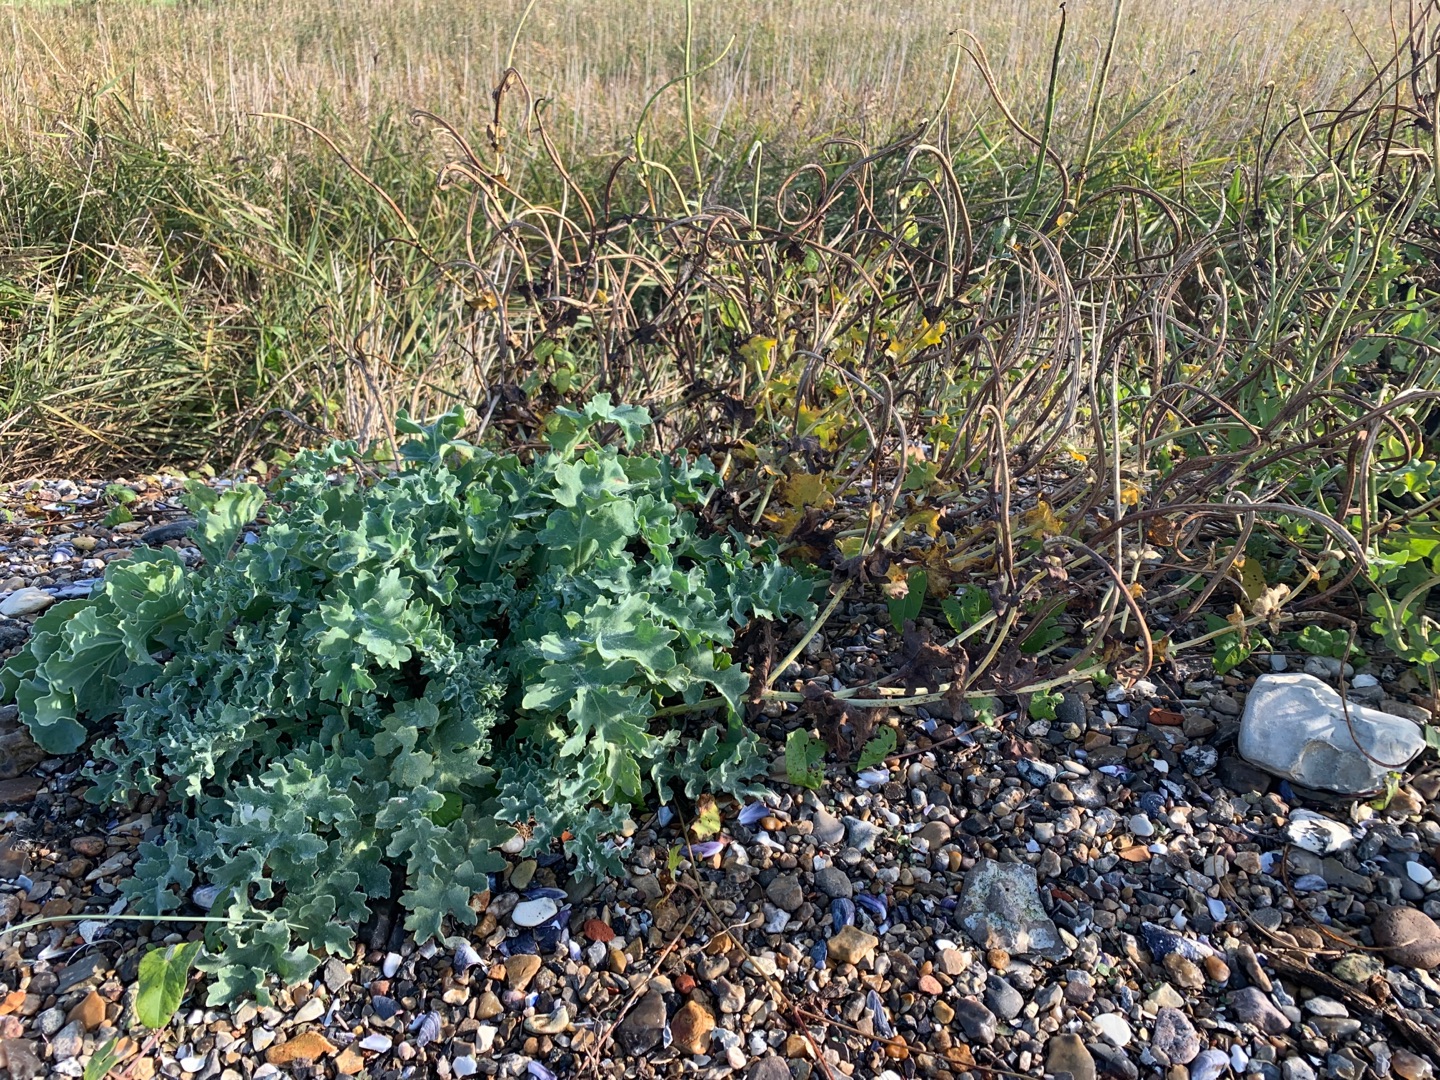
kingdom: Plantae
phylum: Tracheophyta
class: Magnoliopsida
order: Ranunculales
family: Papaveraceae
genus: Glaucium
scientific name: Glaucium flavum
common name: Hornskulpe
